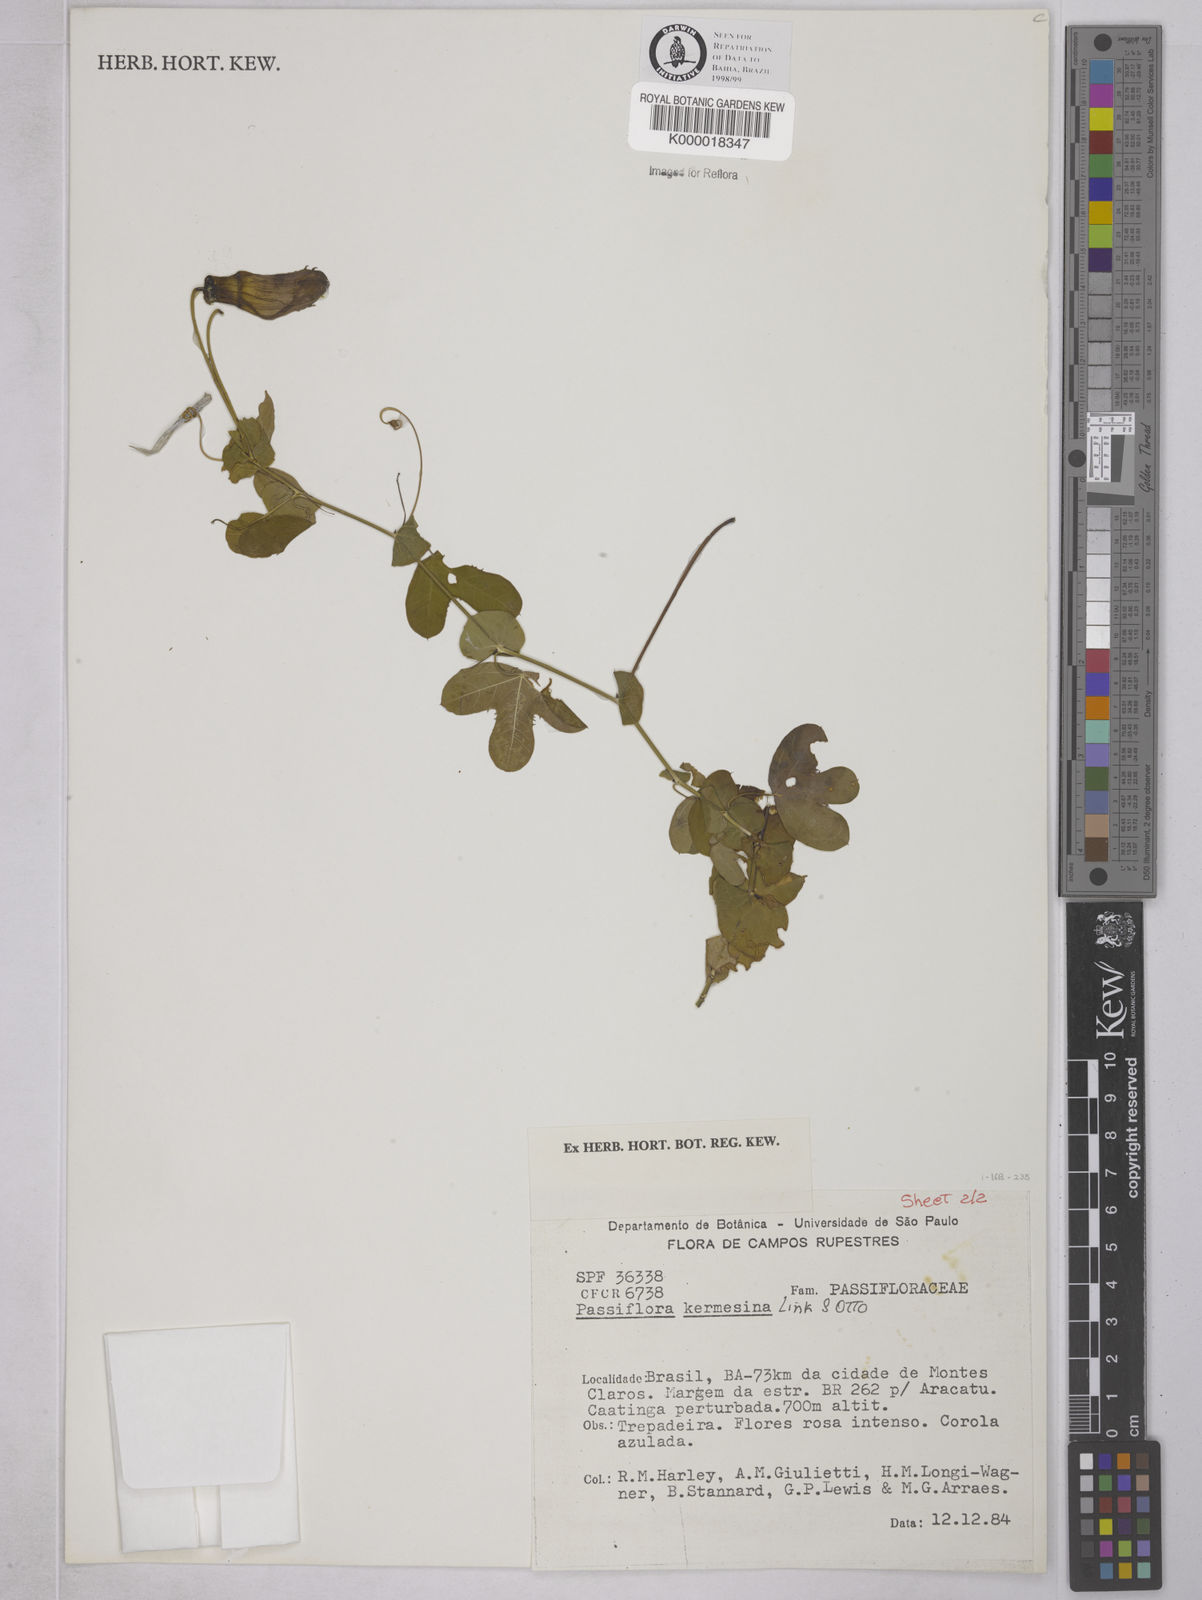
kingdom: Plantae
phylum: Tracheophyta
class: Magnoliopsida
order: Malpighiales
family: Passifloraceae
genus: Passiflora
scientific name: Passiflora kermesina
